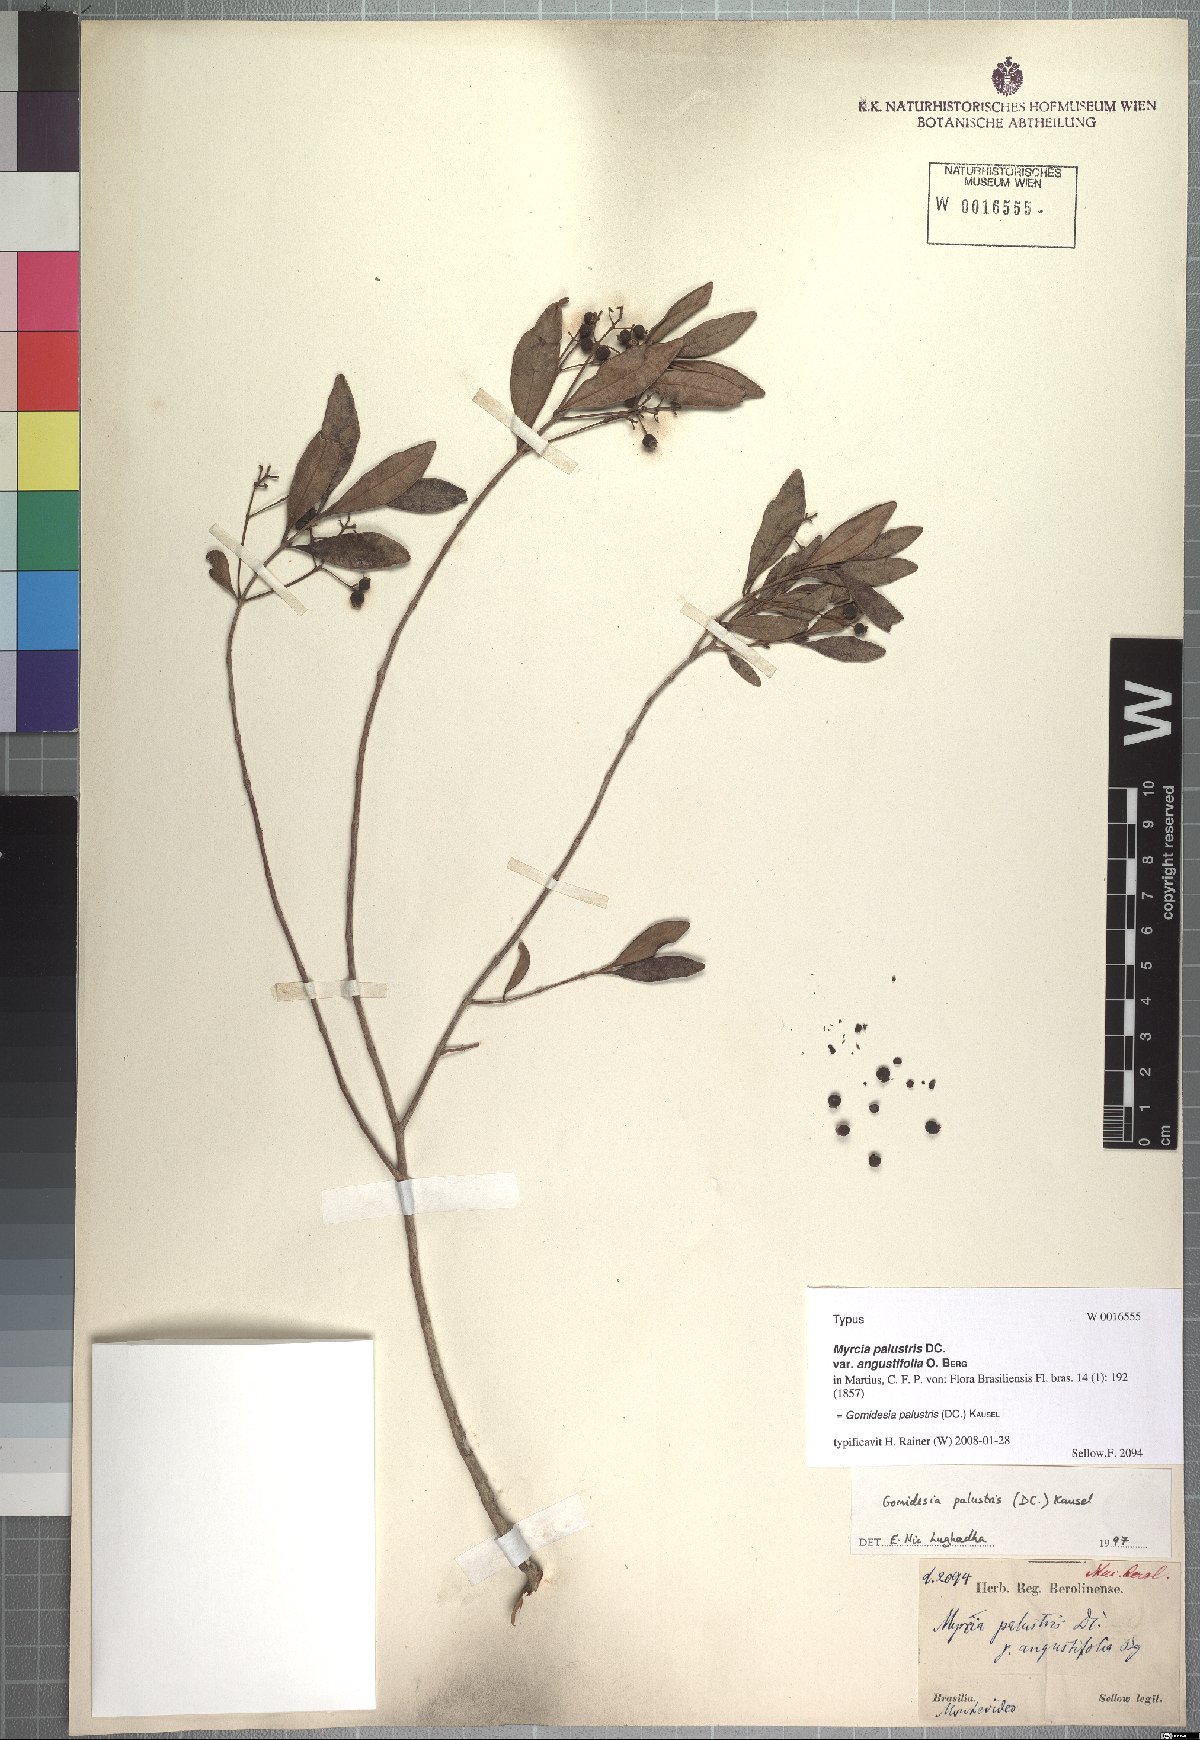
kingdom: Plantae
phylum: Tracheophyta
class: Magnoliopsida
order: Myrtales
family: Myrtaceae
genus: Myrcia
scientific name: Myrcia palustris
